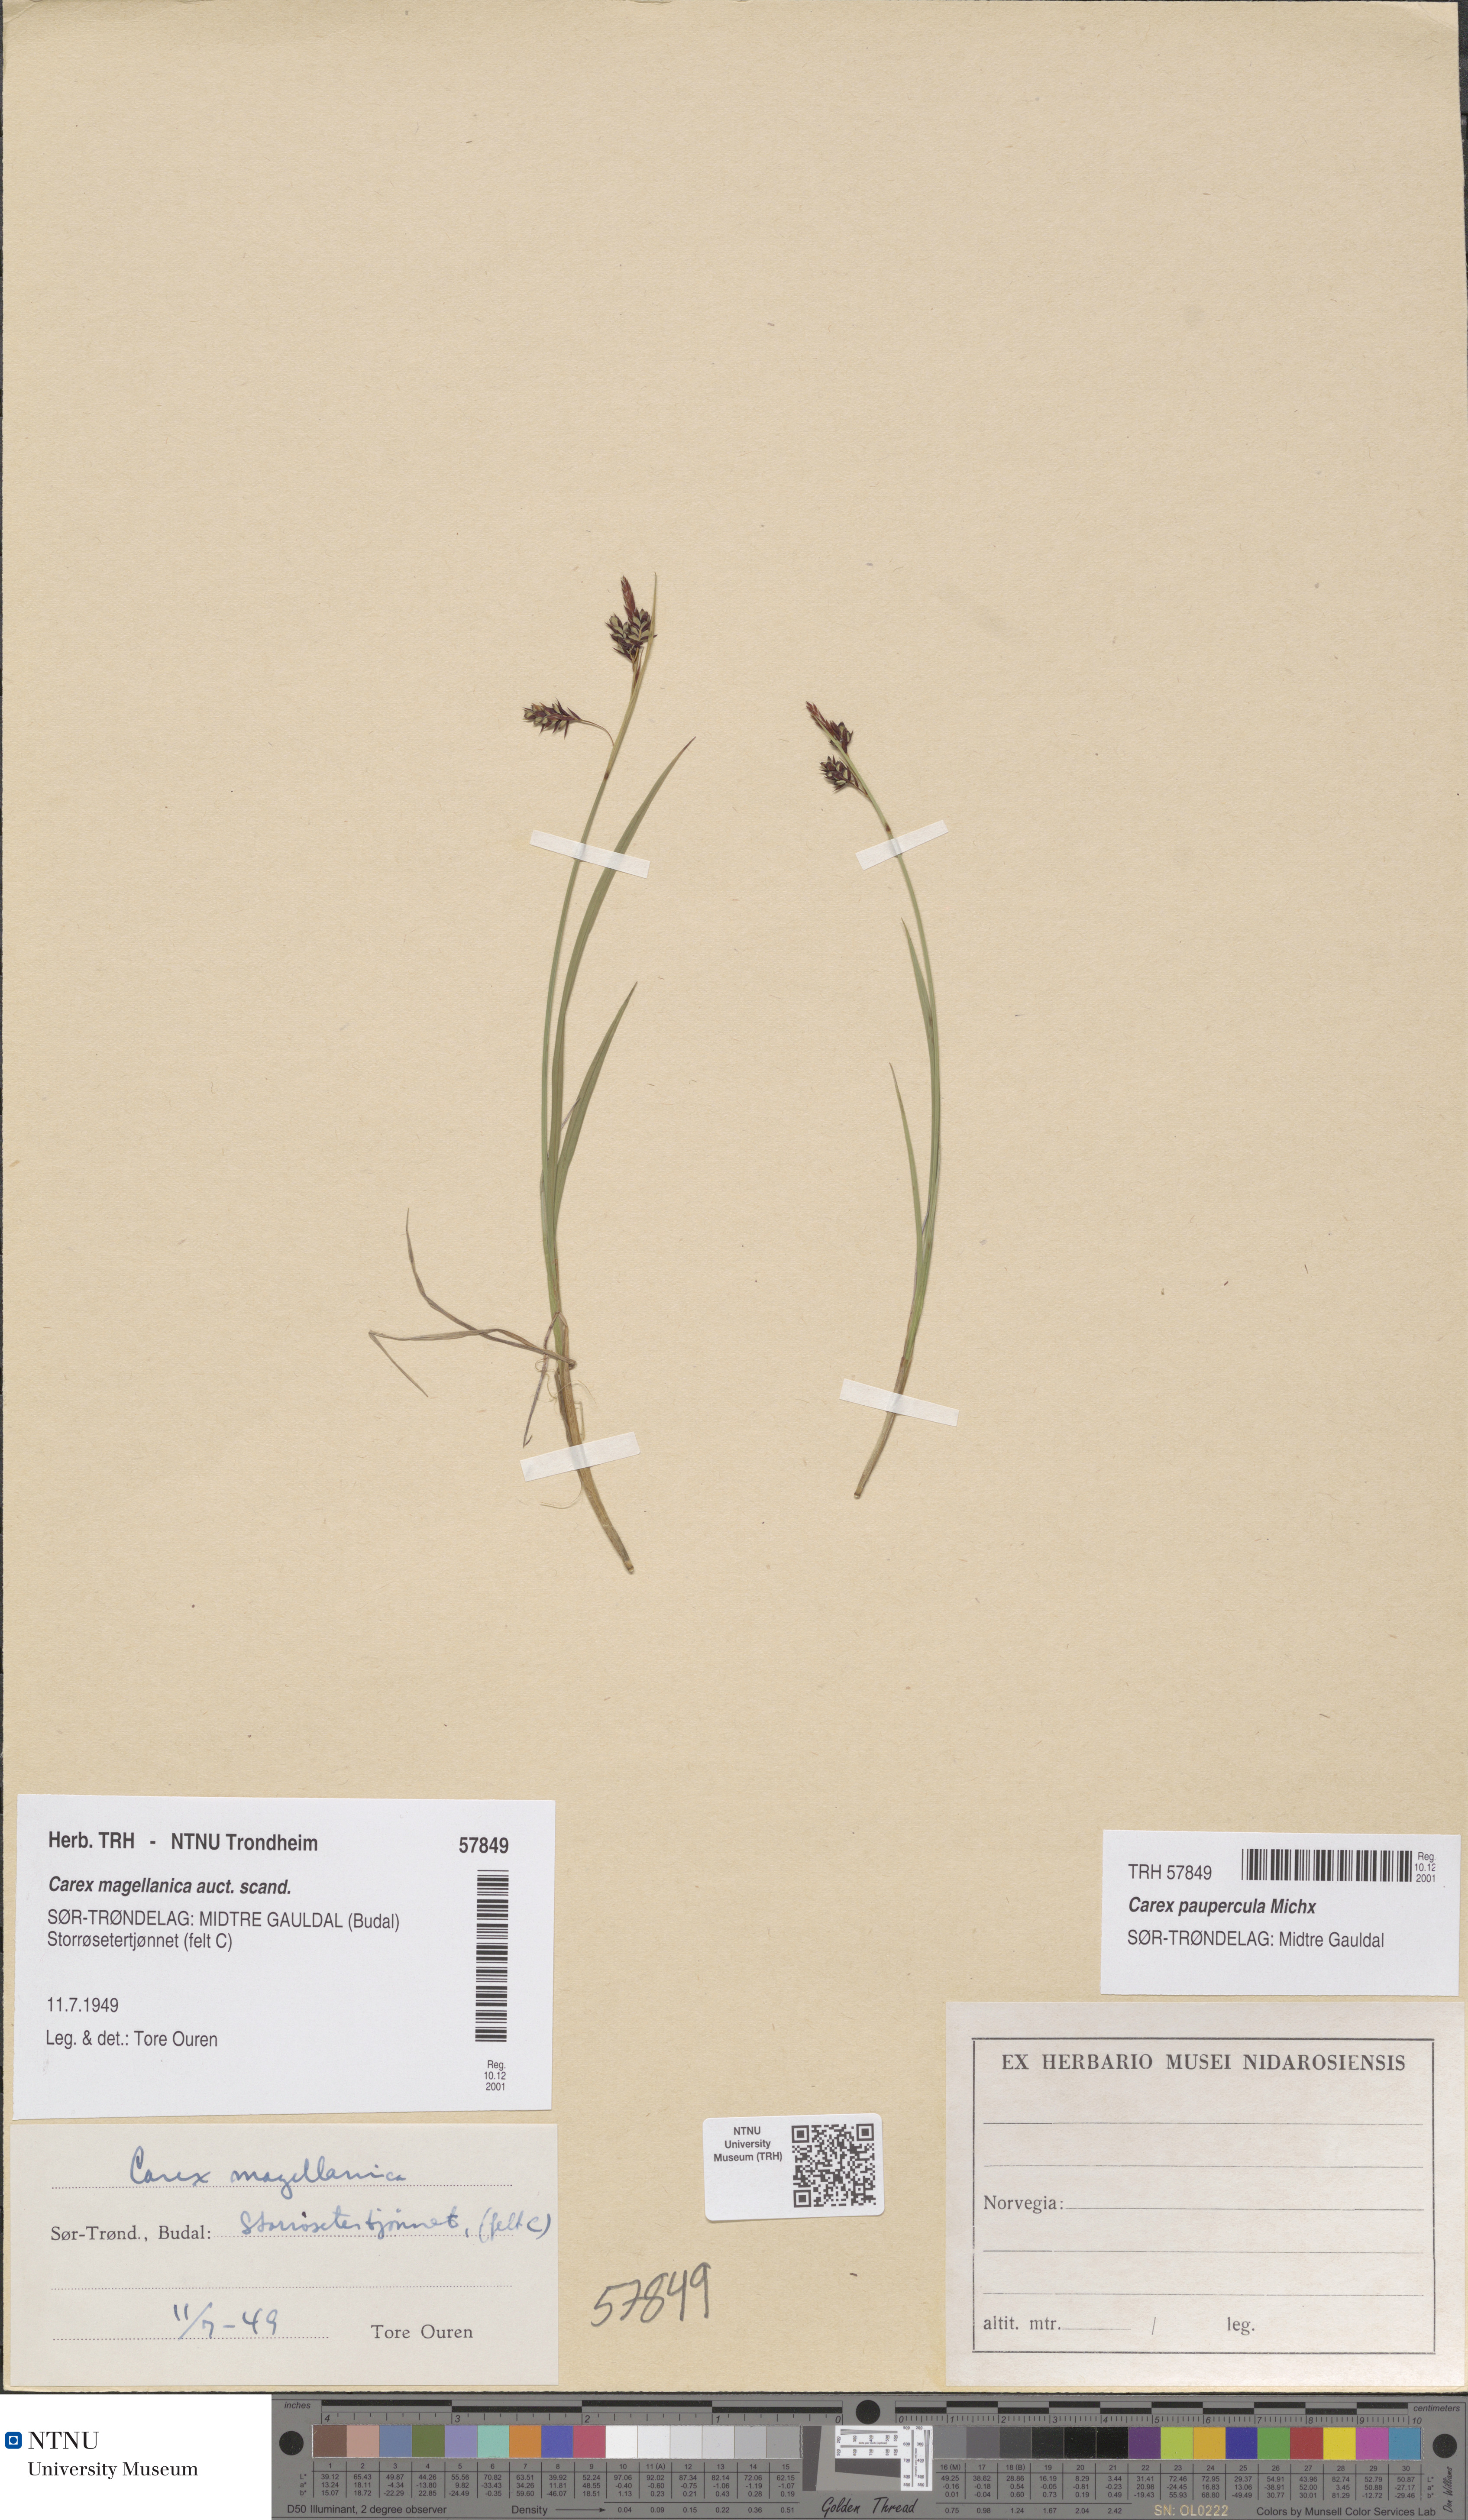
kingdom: Plantae
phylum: Tracheophyta
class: Liliopsida
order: Poales
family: Cyperaceae
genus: Carex
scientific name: Carex magellanica
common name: Bog sedge
